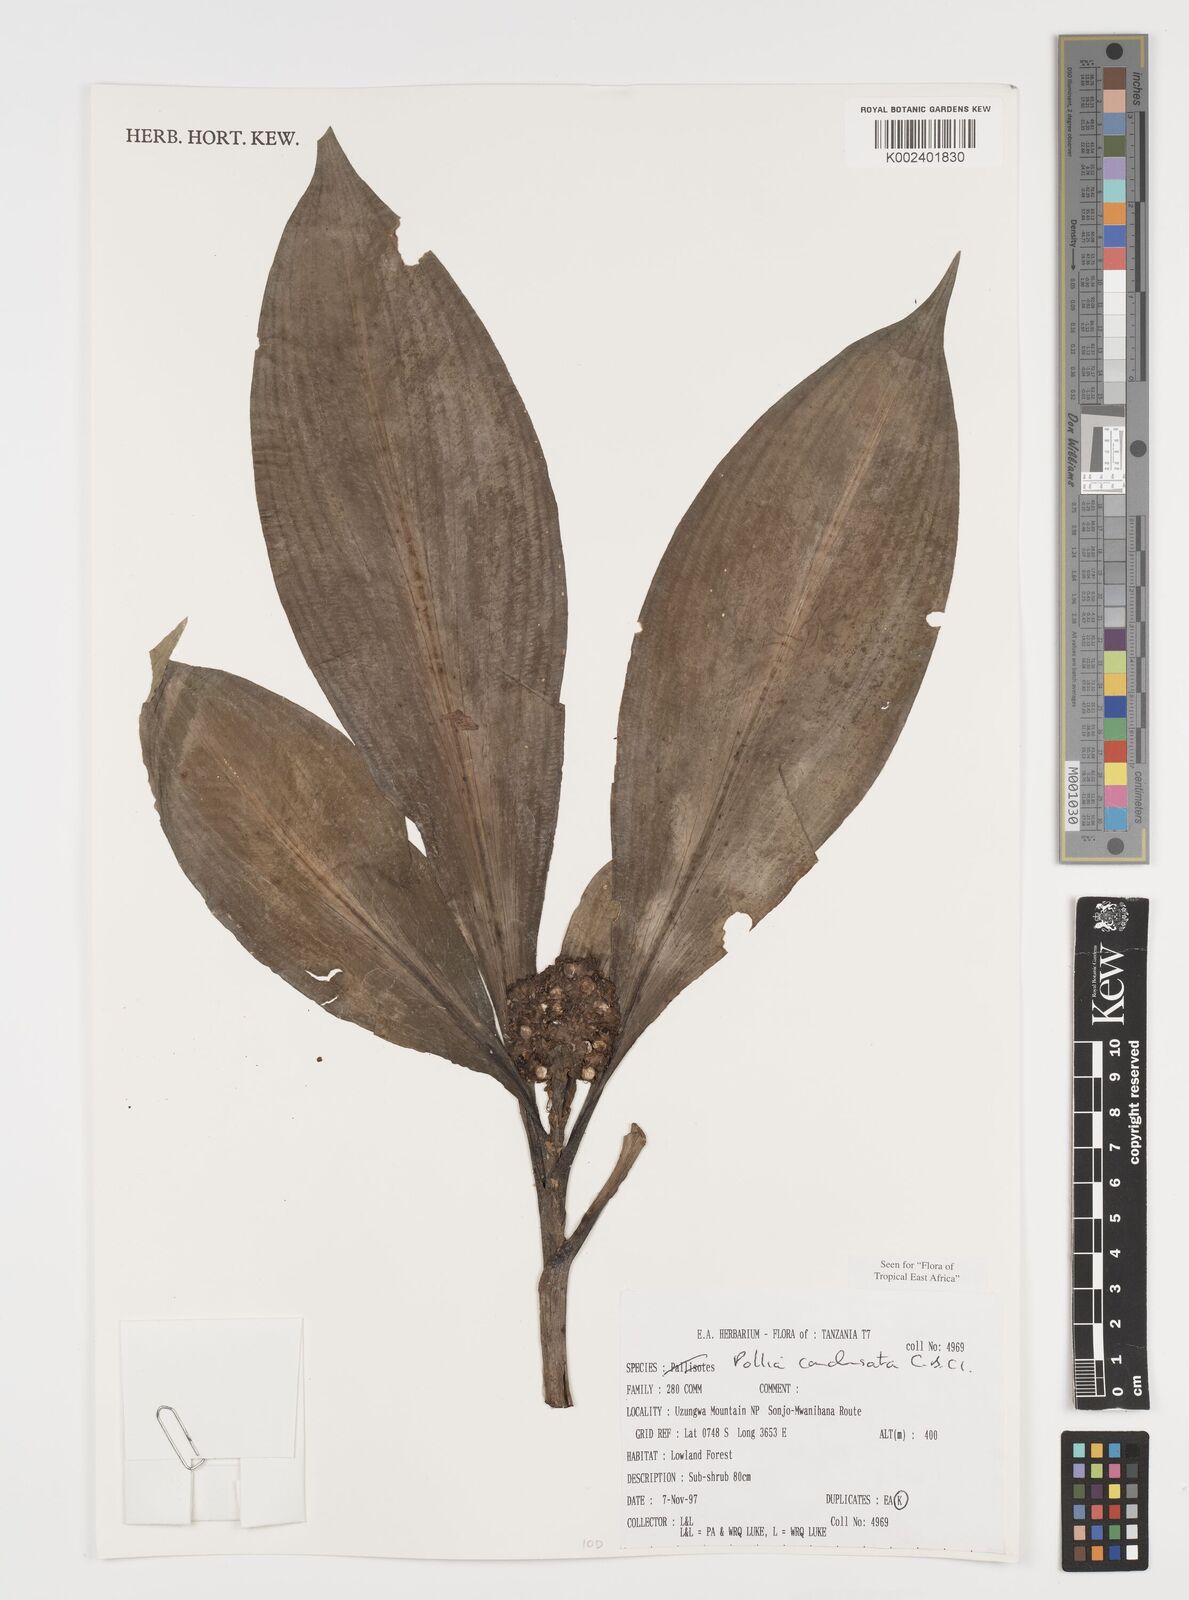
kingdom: Plantae
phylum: Tracheophyta
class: Liliopsida
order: Commelinales
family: Commelinaceae
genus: Pollia
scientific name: Pollia condensata
